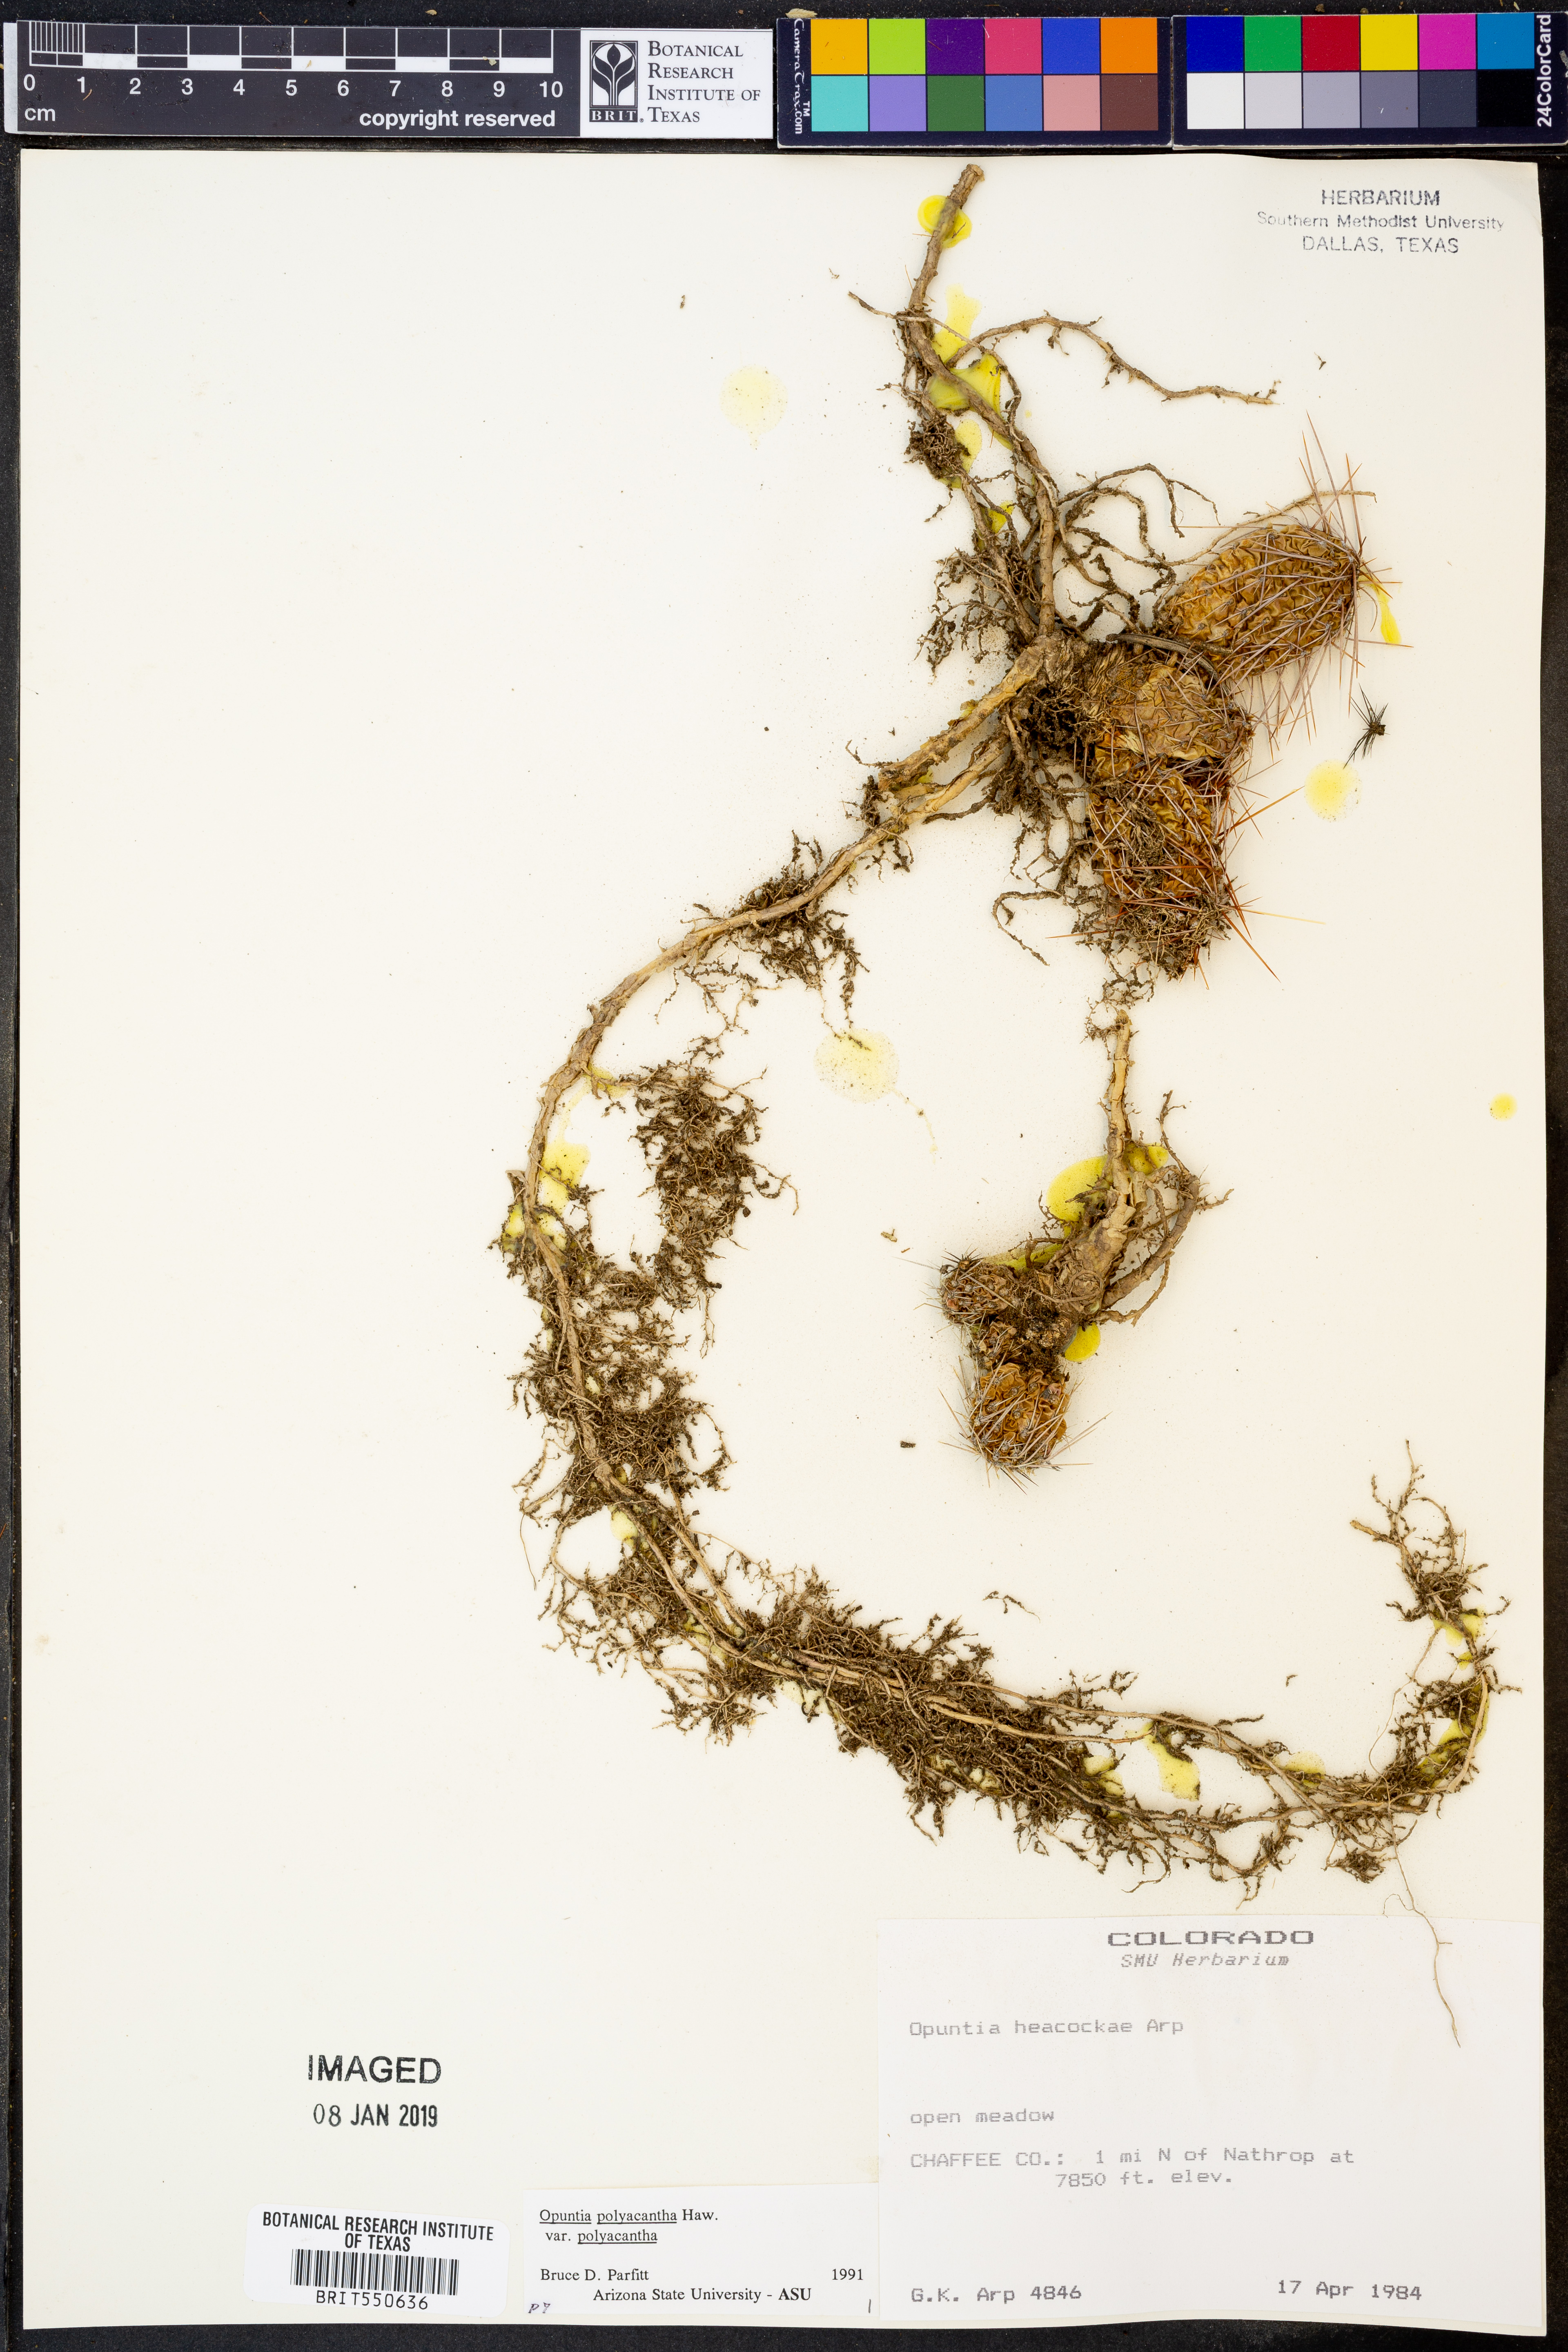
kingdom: Plantae
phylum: Tracheophyta
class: Magnoliopsida
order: Caryophyllales
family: Cactaceae
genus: Opuntia
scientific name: Opuntia polyacantha
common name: Plains prickly-pear
